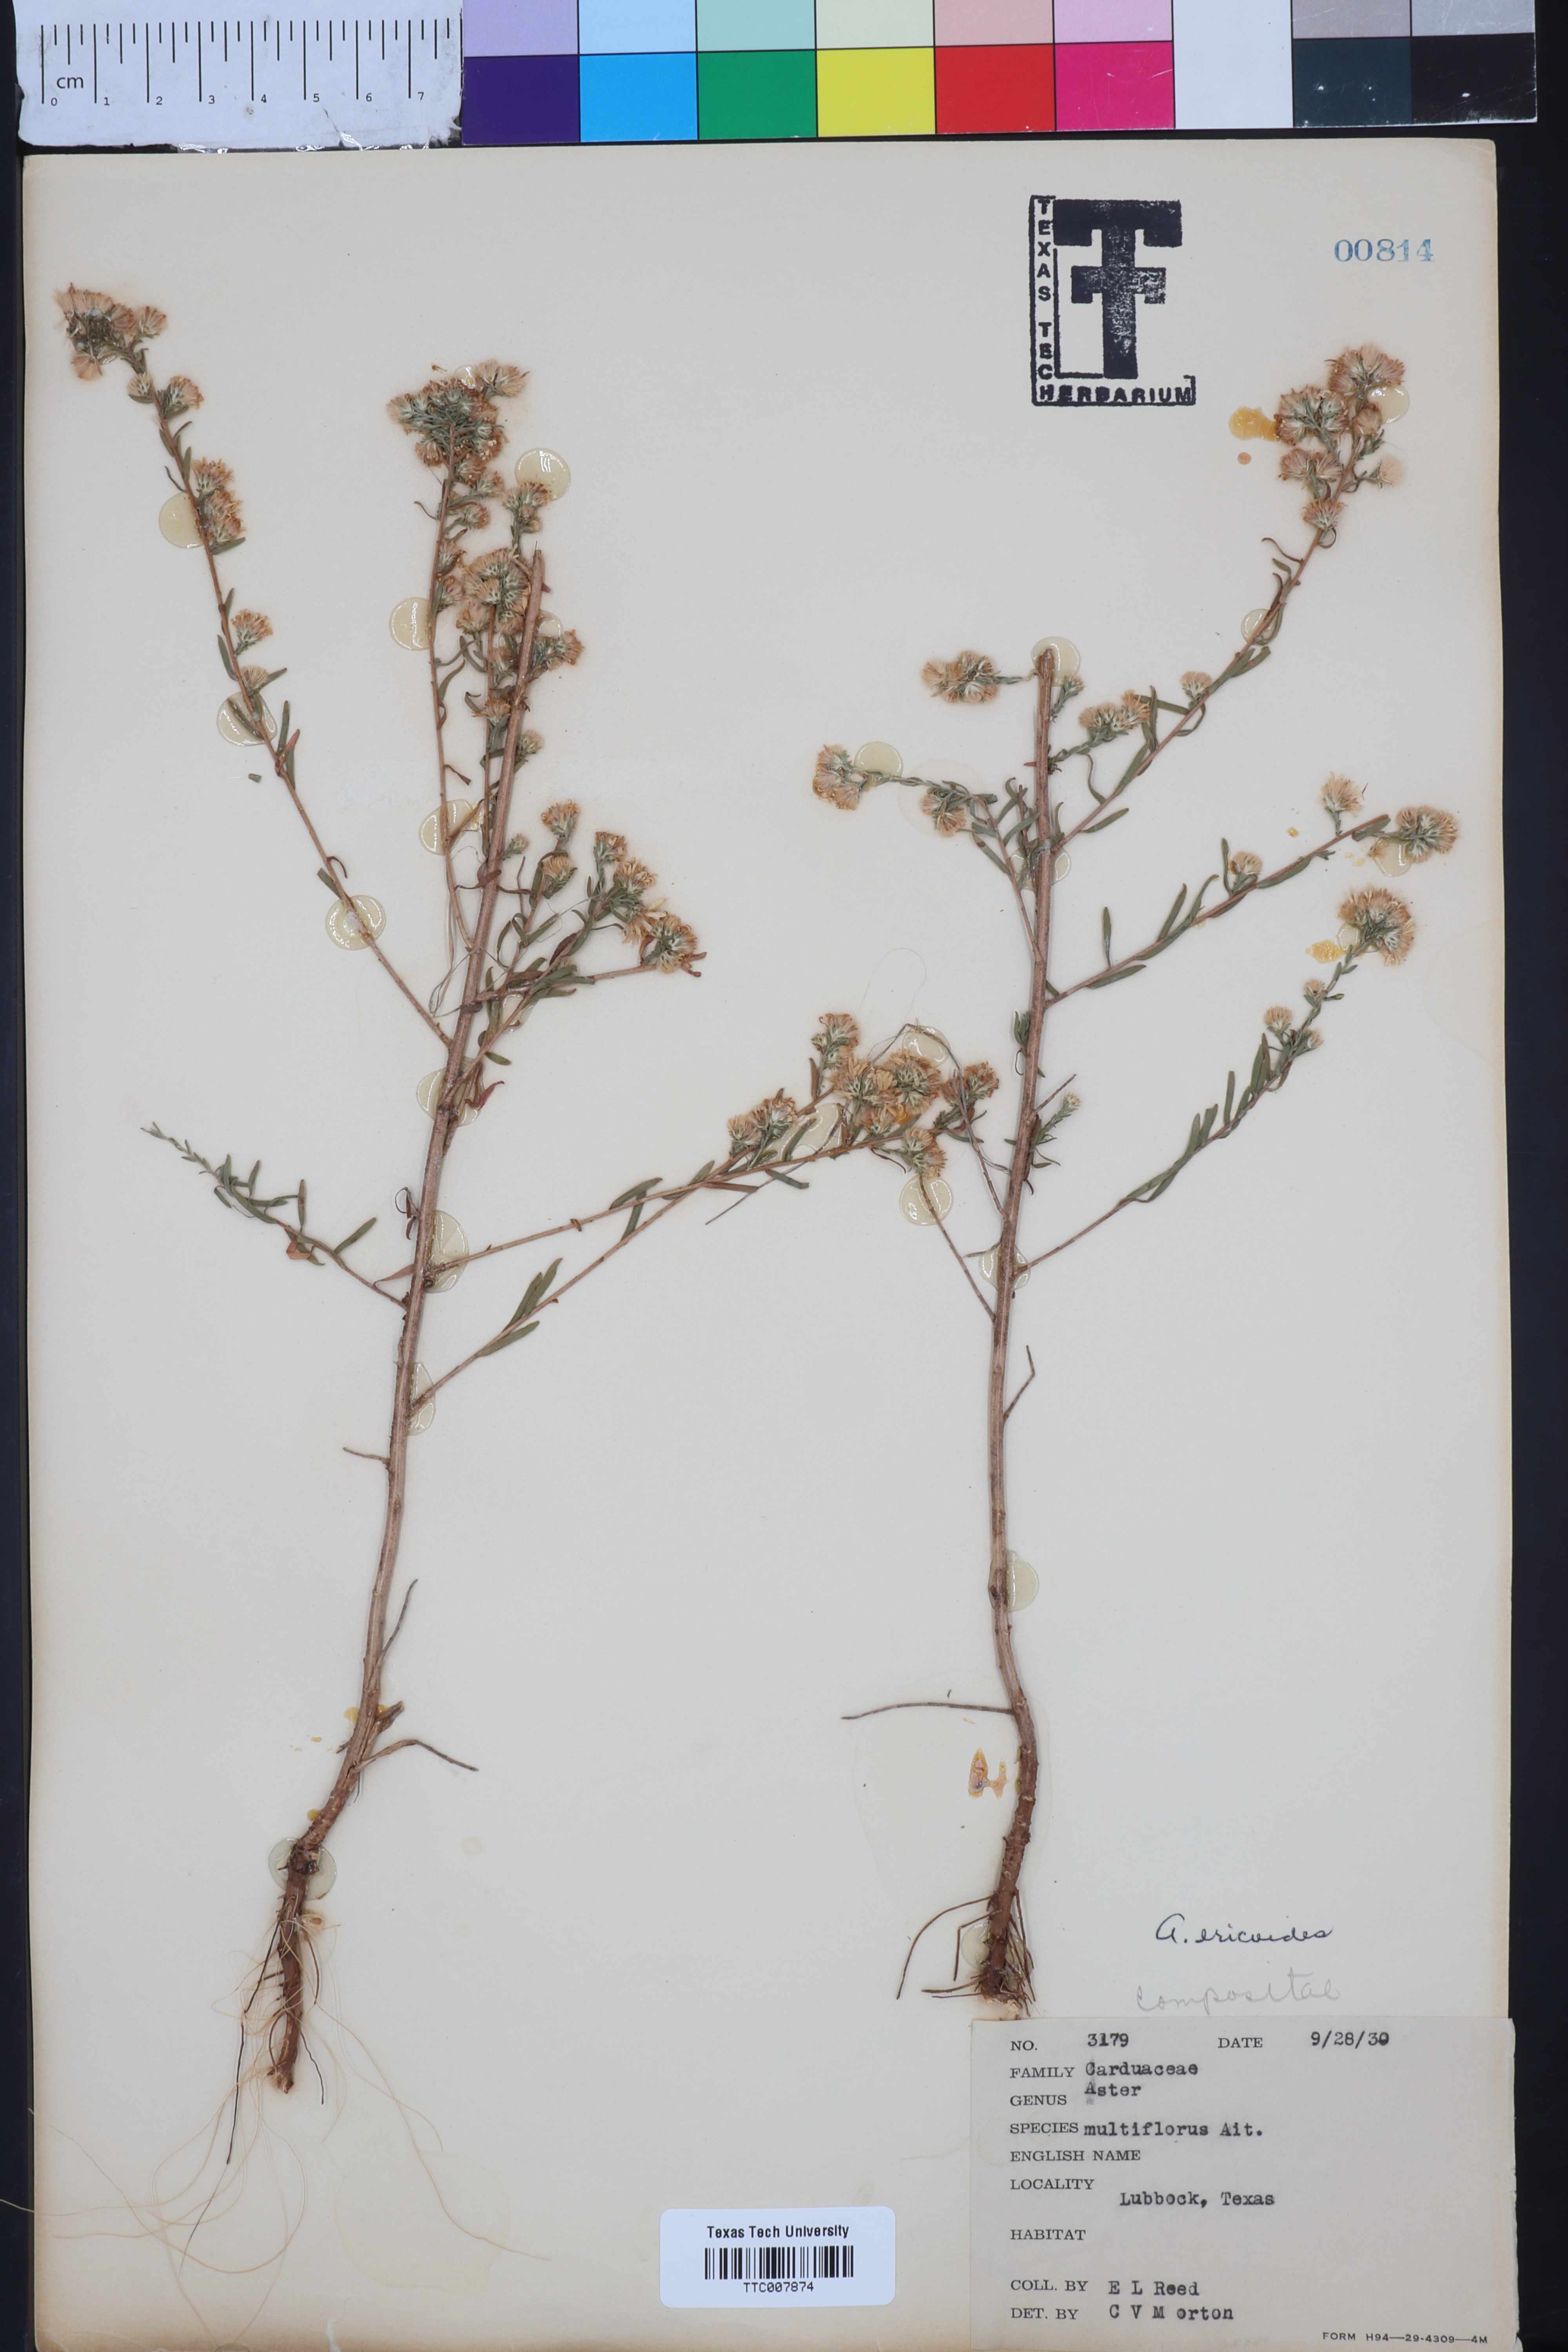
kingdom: Plantae
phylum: Tracheophyta
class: Magnoliopsida
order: Asterales
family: Asteraceae
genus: Symphyotrichum
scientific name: Symphyotrichum ericoides
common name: Heath aster
